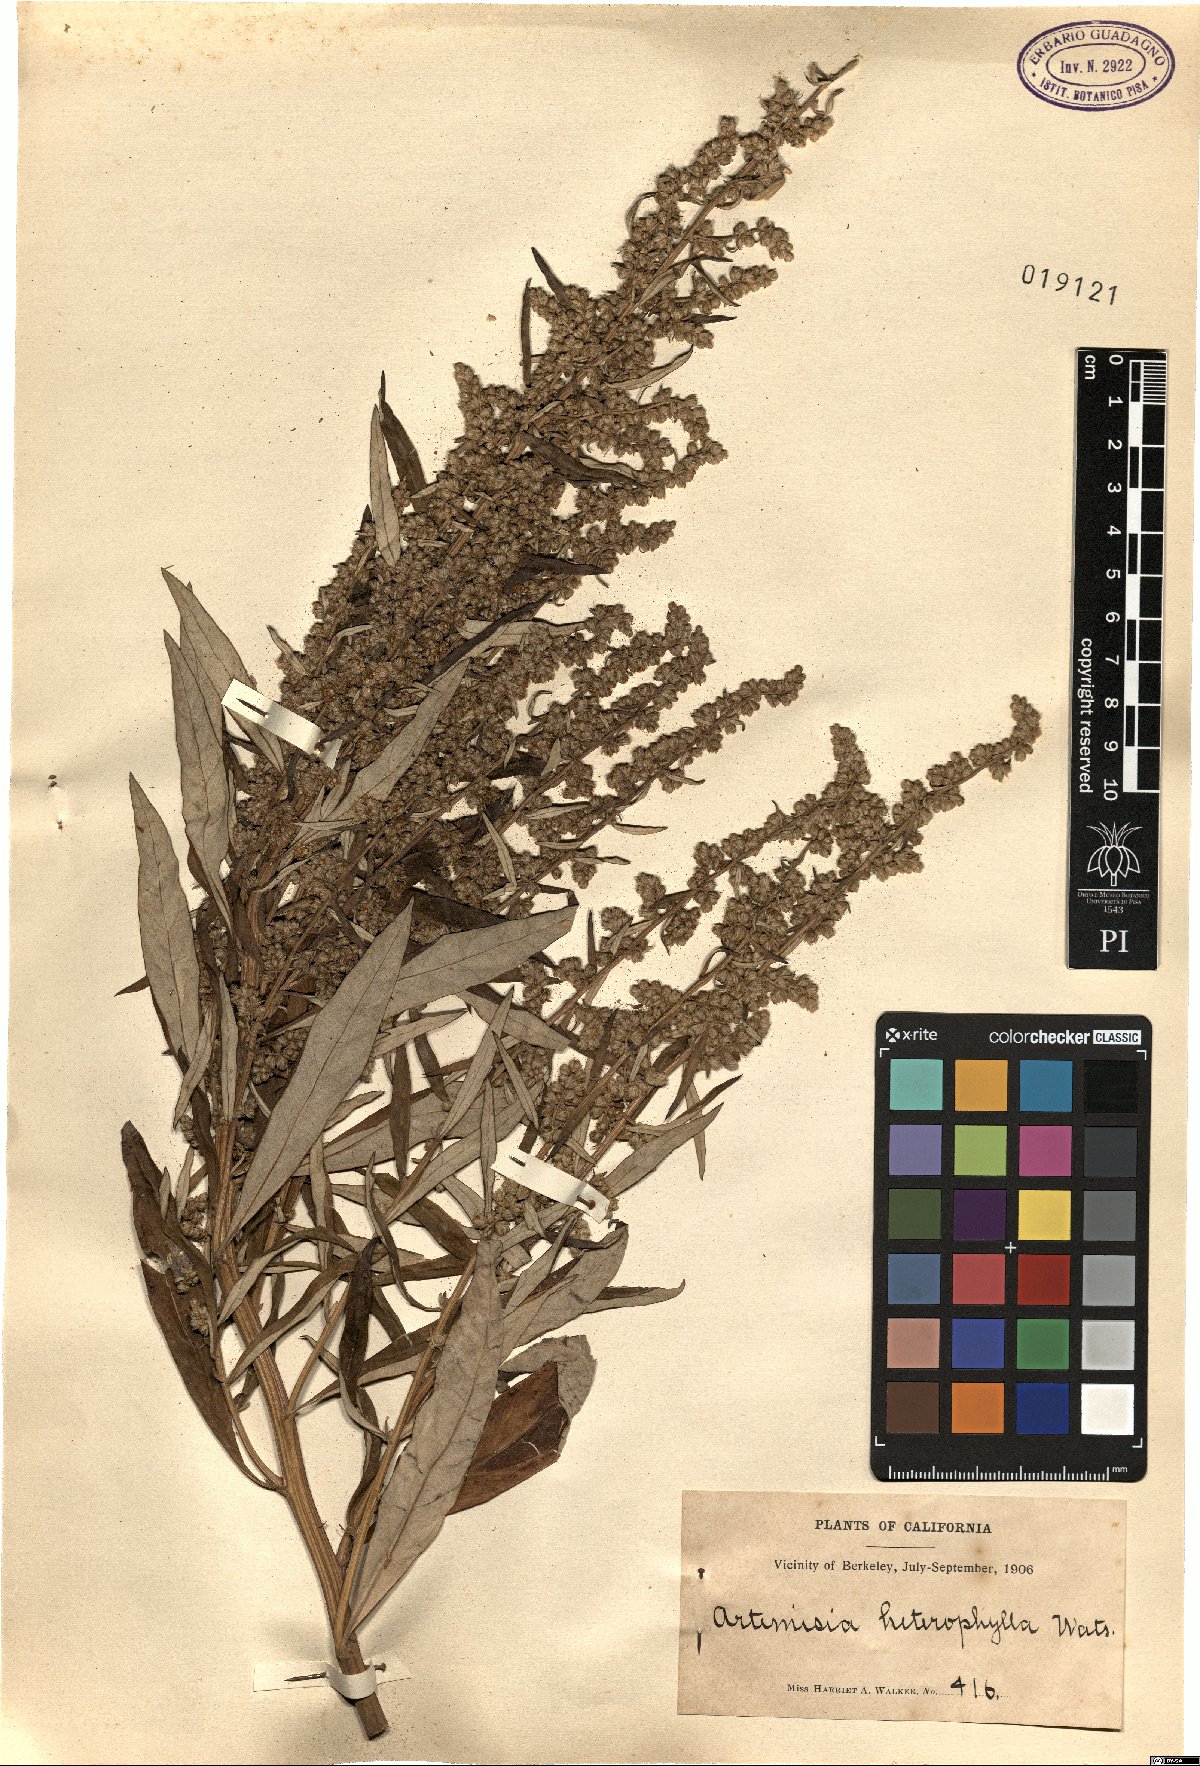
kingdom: Plantae
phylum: Tracheophyta
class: Magnoliopsida
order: Asterales
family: Asteraceae
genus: Artemisia
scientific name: Artemisia furcata
